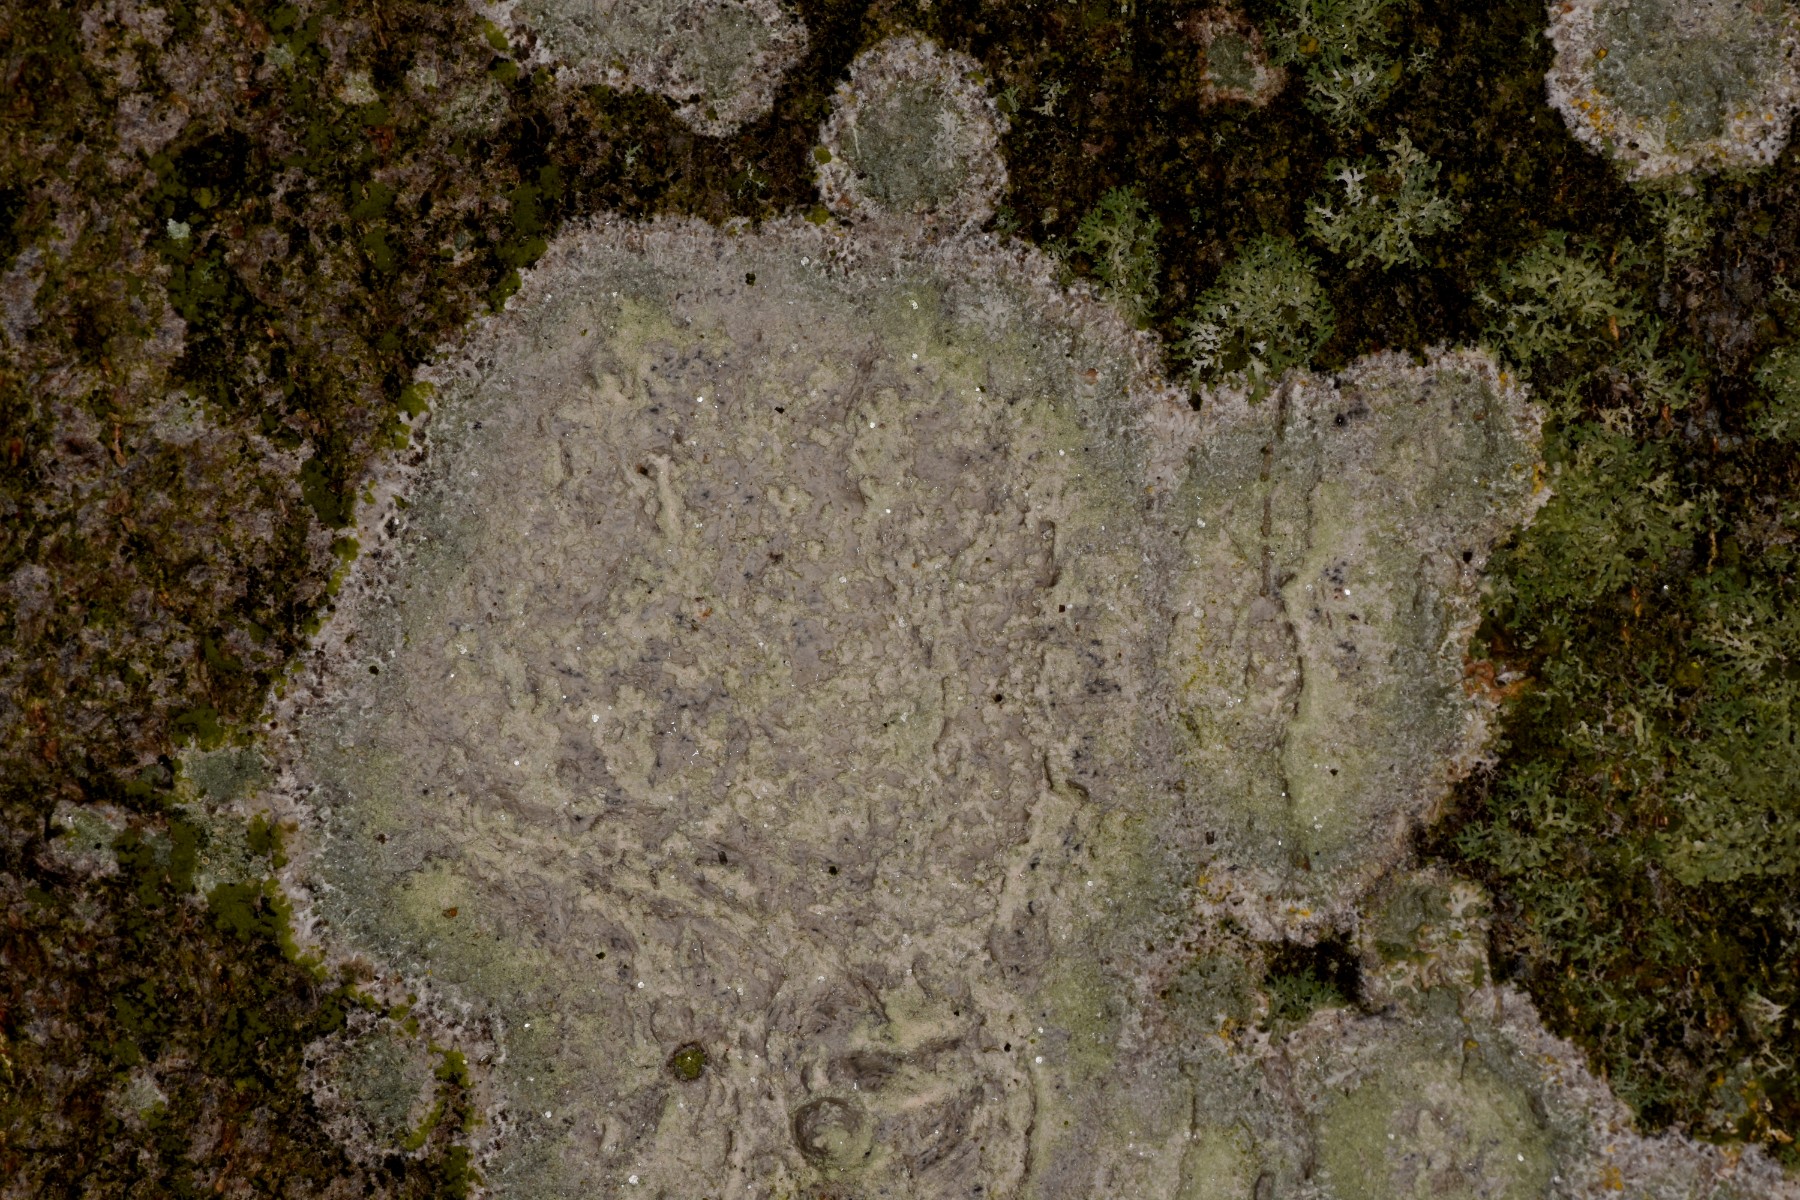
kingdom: Fungi
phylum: Ascomycota
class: Lecanoromycetes
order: Ostropales
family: Phlyctidaceae
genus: Phlyctis
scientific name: Phlyctis argena
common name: almindelig sølvlav
